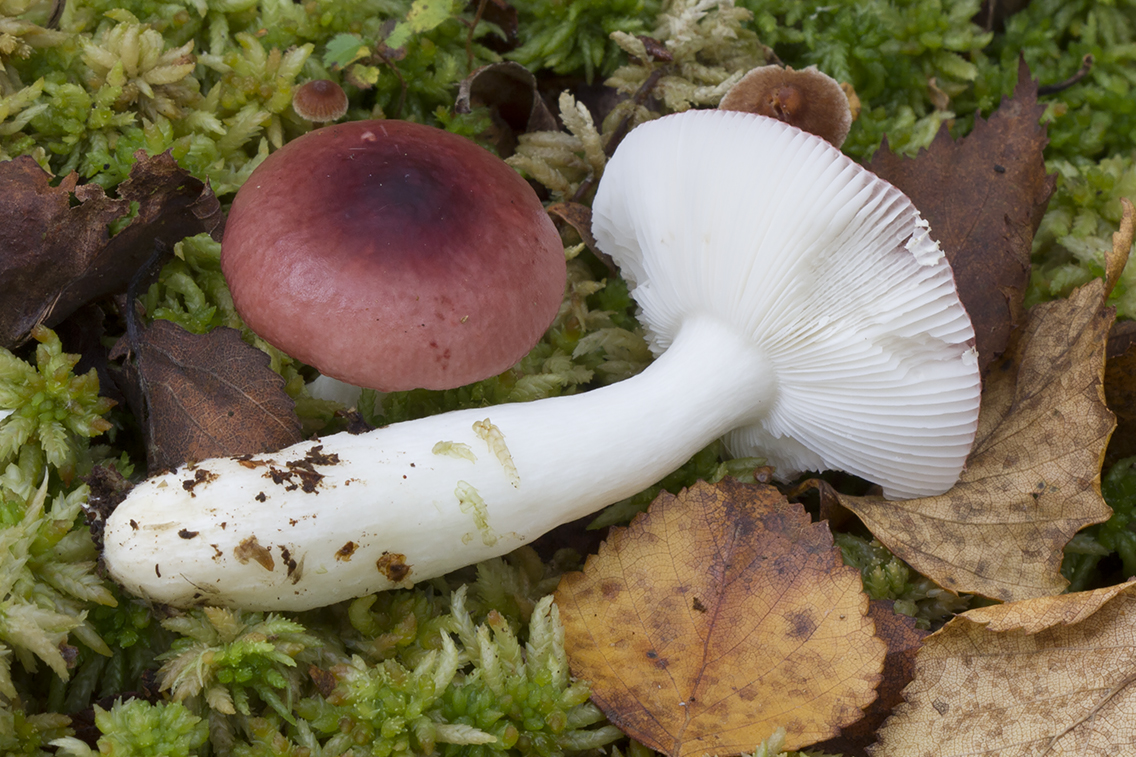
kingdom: Fungi
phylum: Basidiomycota
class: Agaricomycetes
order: Russulales
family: Russulaceae
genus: Russula
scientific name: Russula aquosa
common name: vand-skørhat
